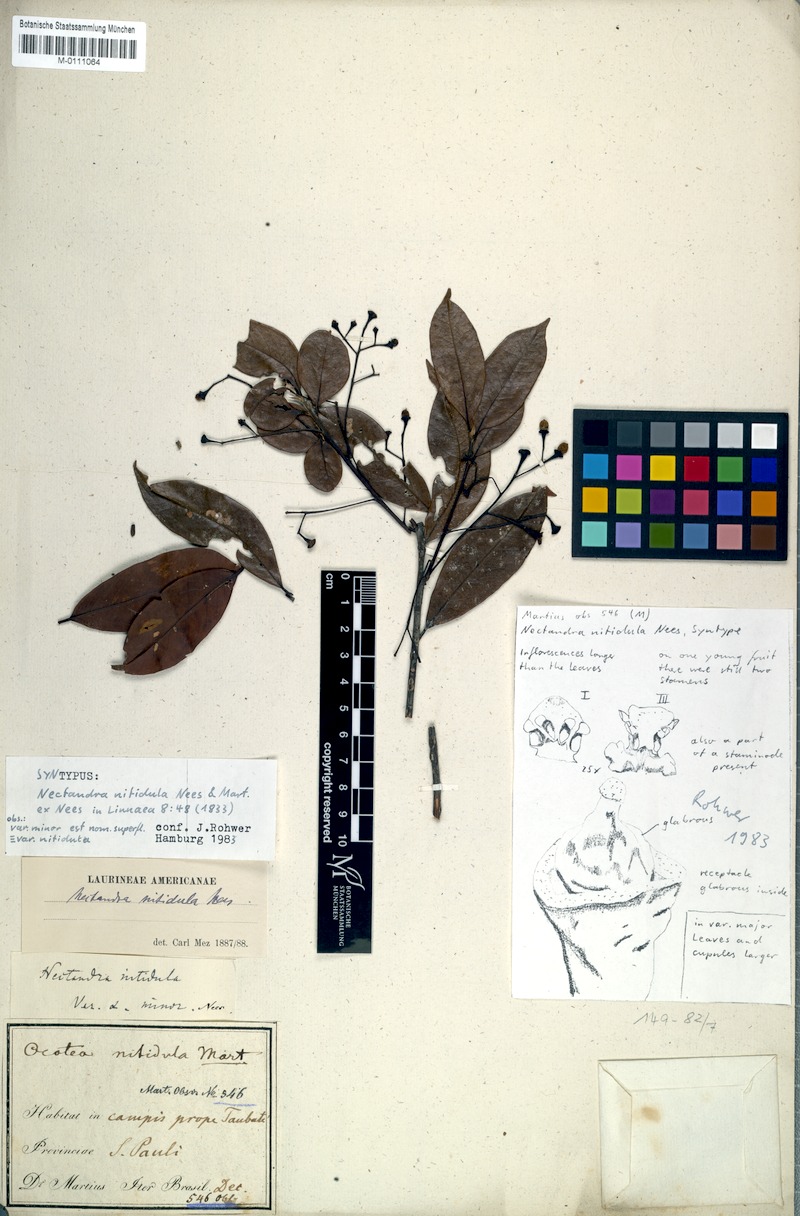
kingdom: Plantae
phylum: Tracheophyta
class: Magnoliopsida
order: Laurales
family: Lauraceae
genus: Nectandra
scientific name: Nectandra nitidula
